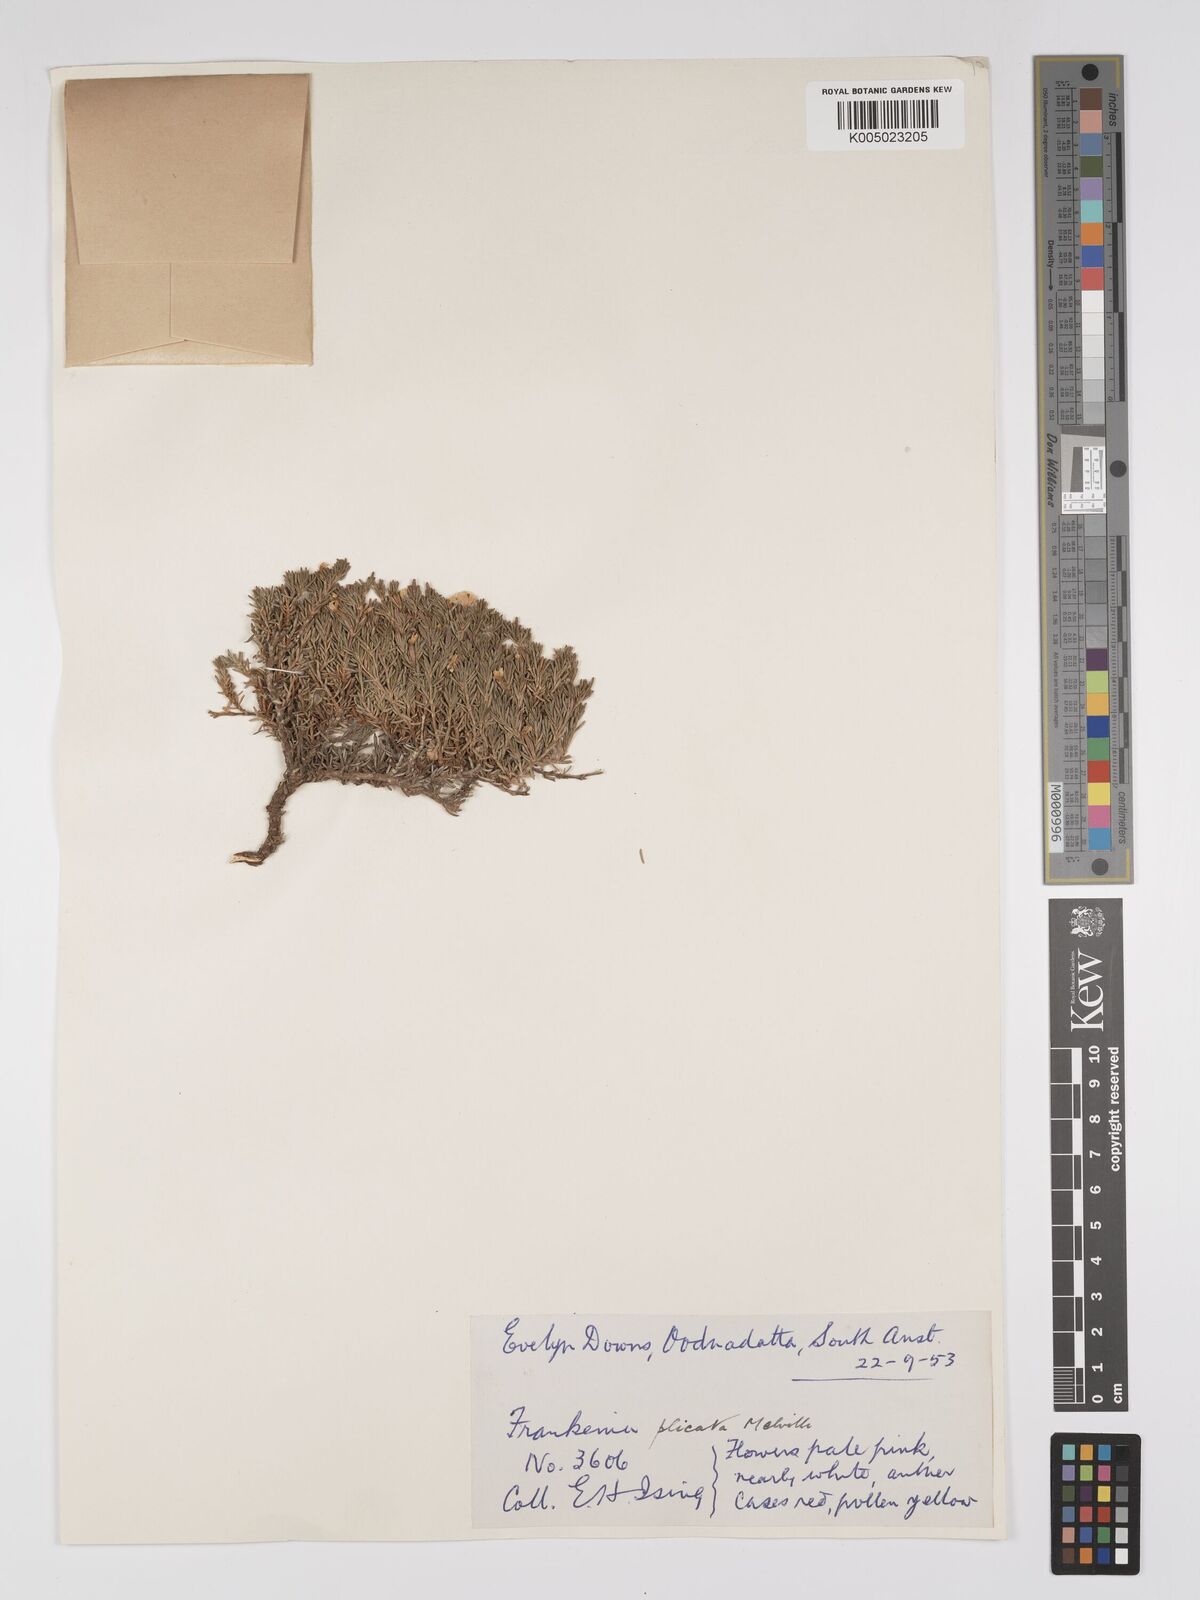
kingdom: Plantae
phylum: Tracheophyta
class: Magnoliopsida
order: Caryophyllales
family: Frankeniaceae
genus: Frankenia
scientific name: Frankenia plicata
